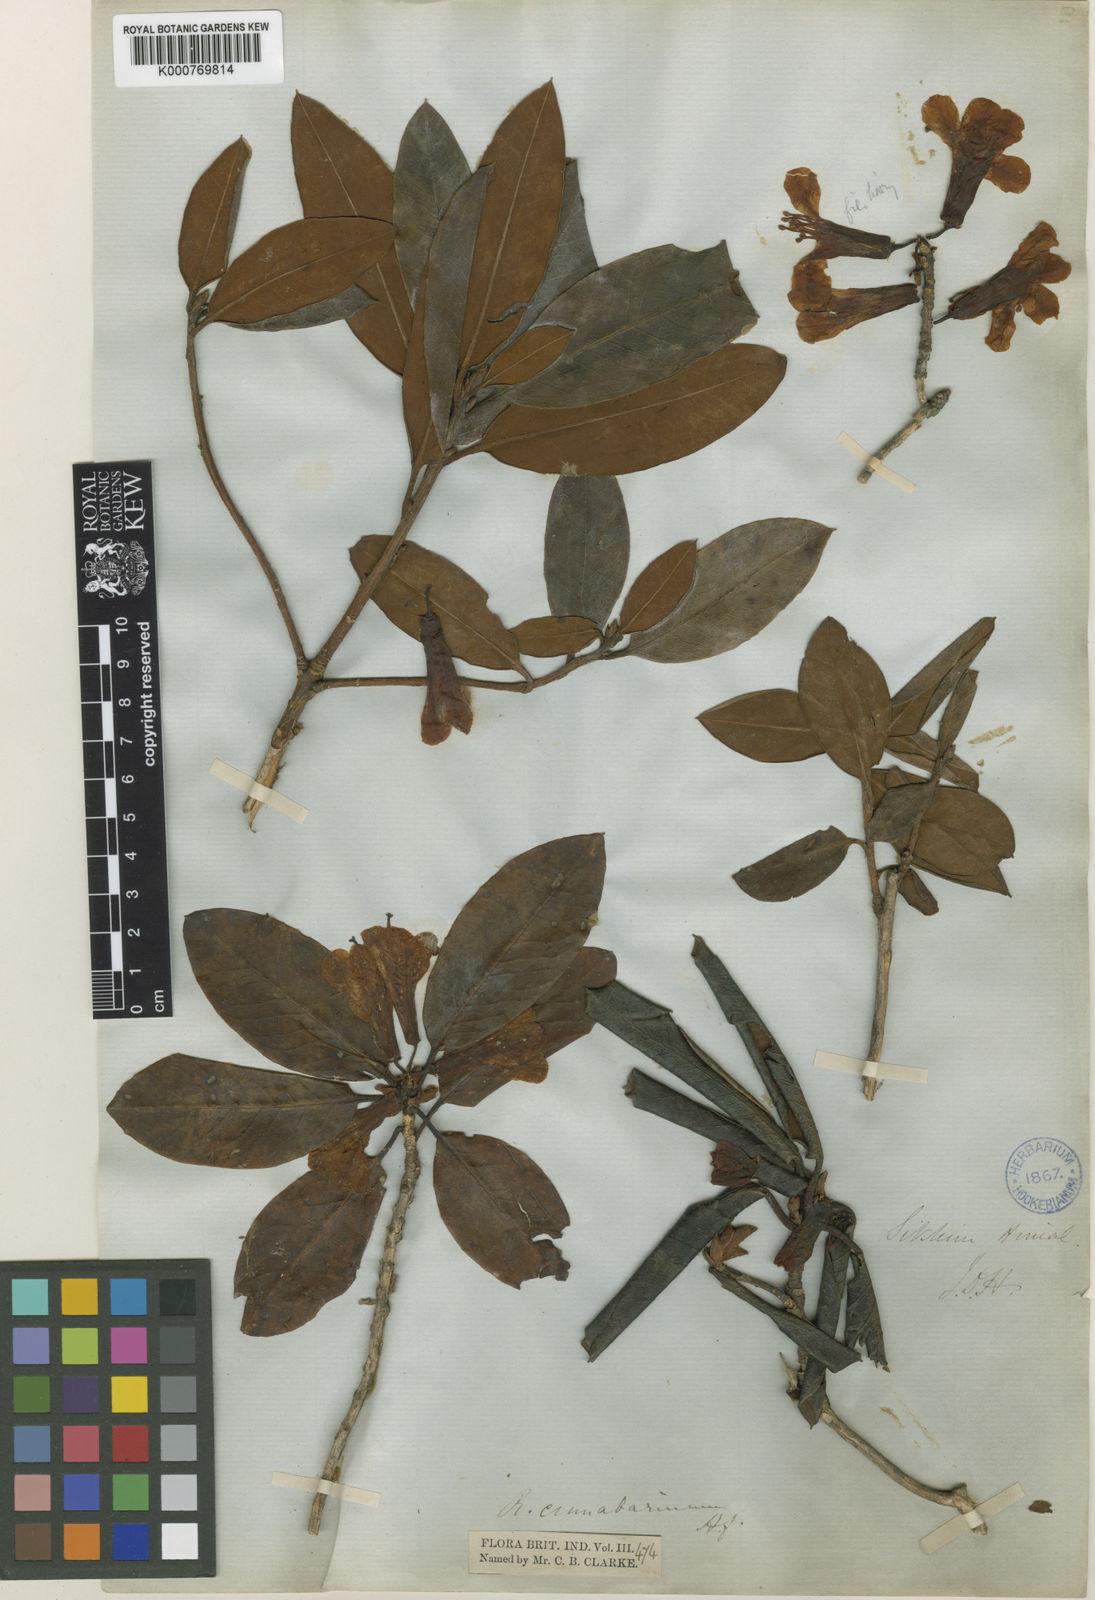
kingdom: Plantae
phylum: Tracheophyta
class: Magnoliopsida
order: Ericales
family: Ericaceae
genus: Rhododendron
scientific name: Rhododendron cinnabarinum
